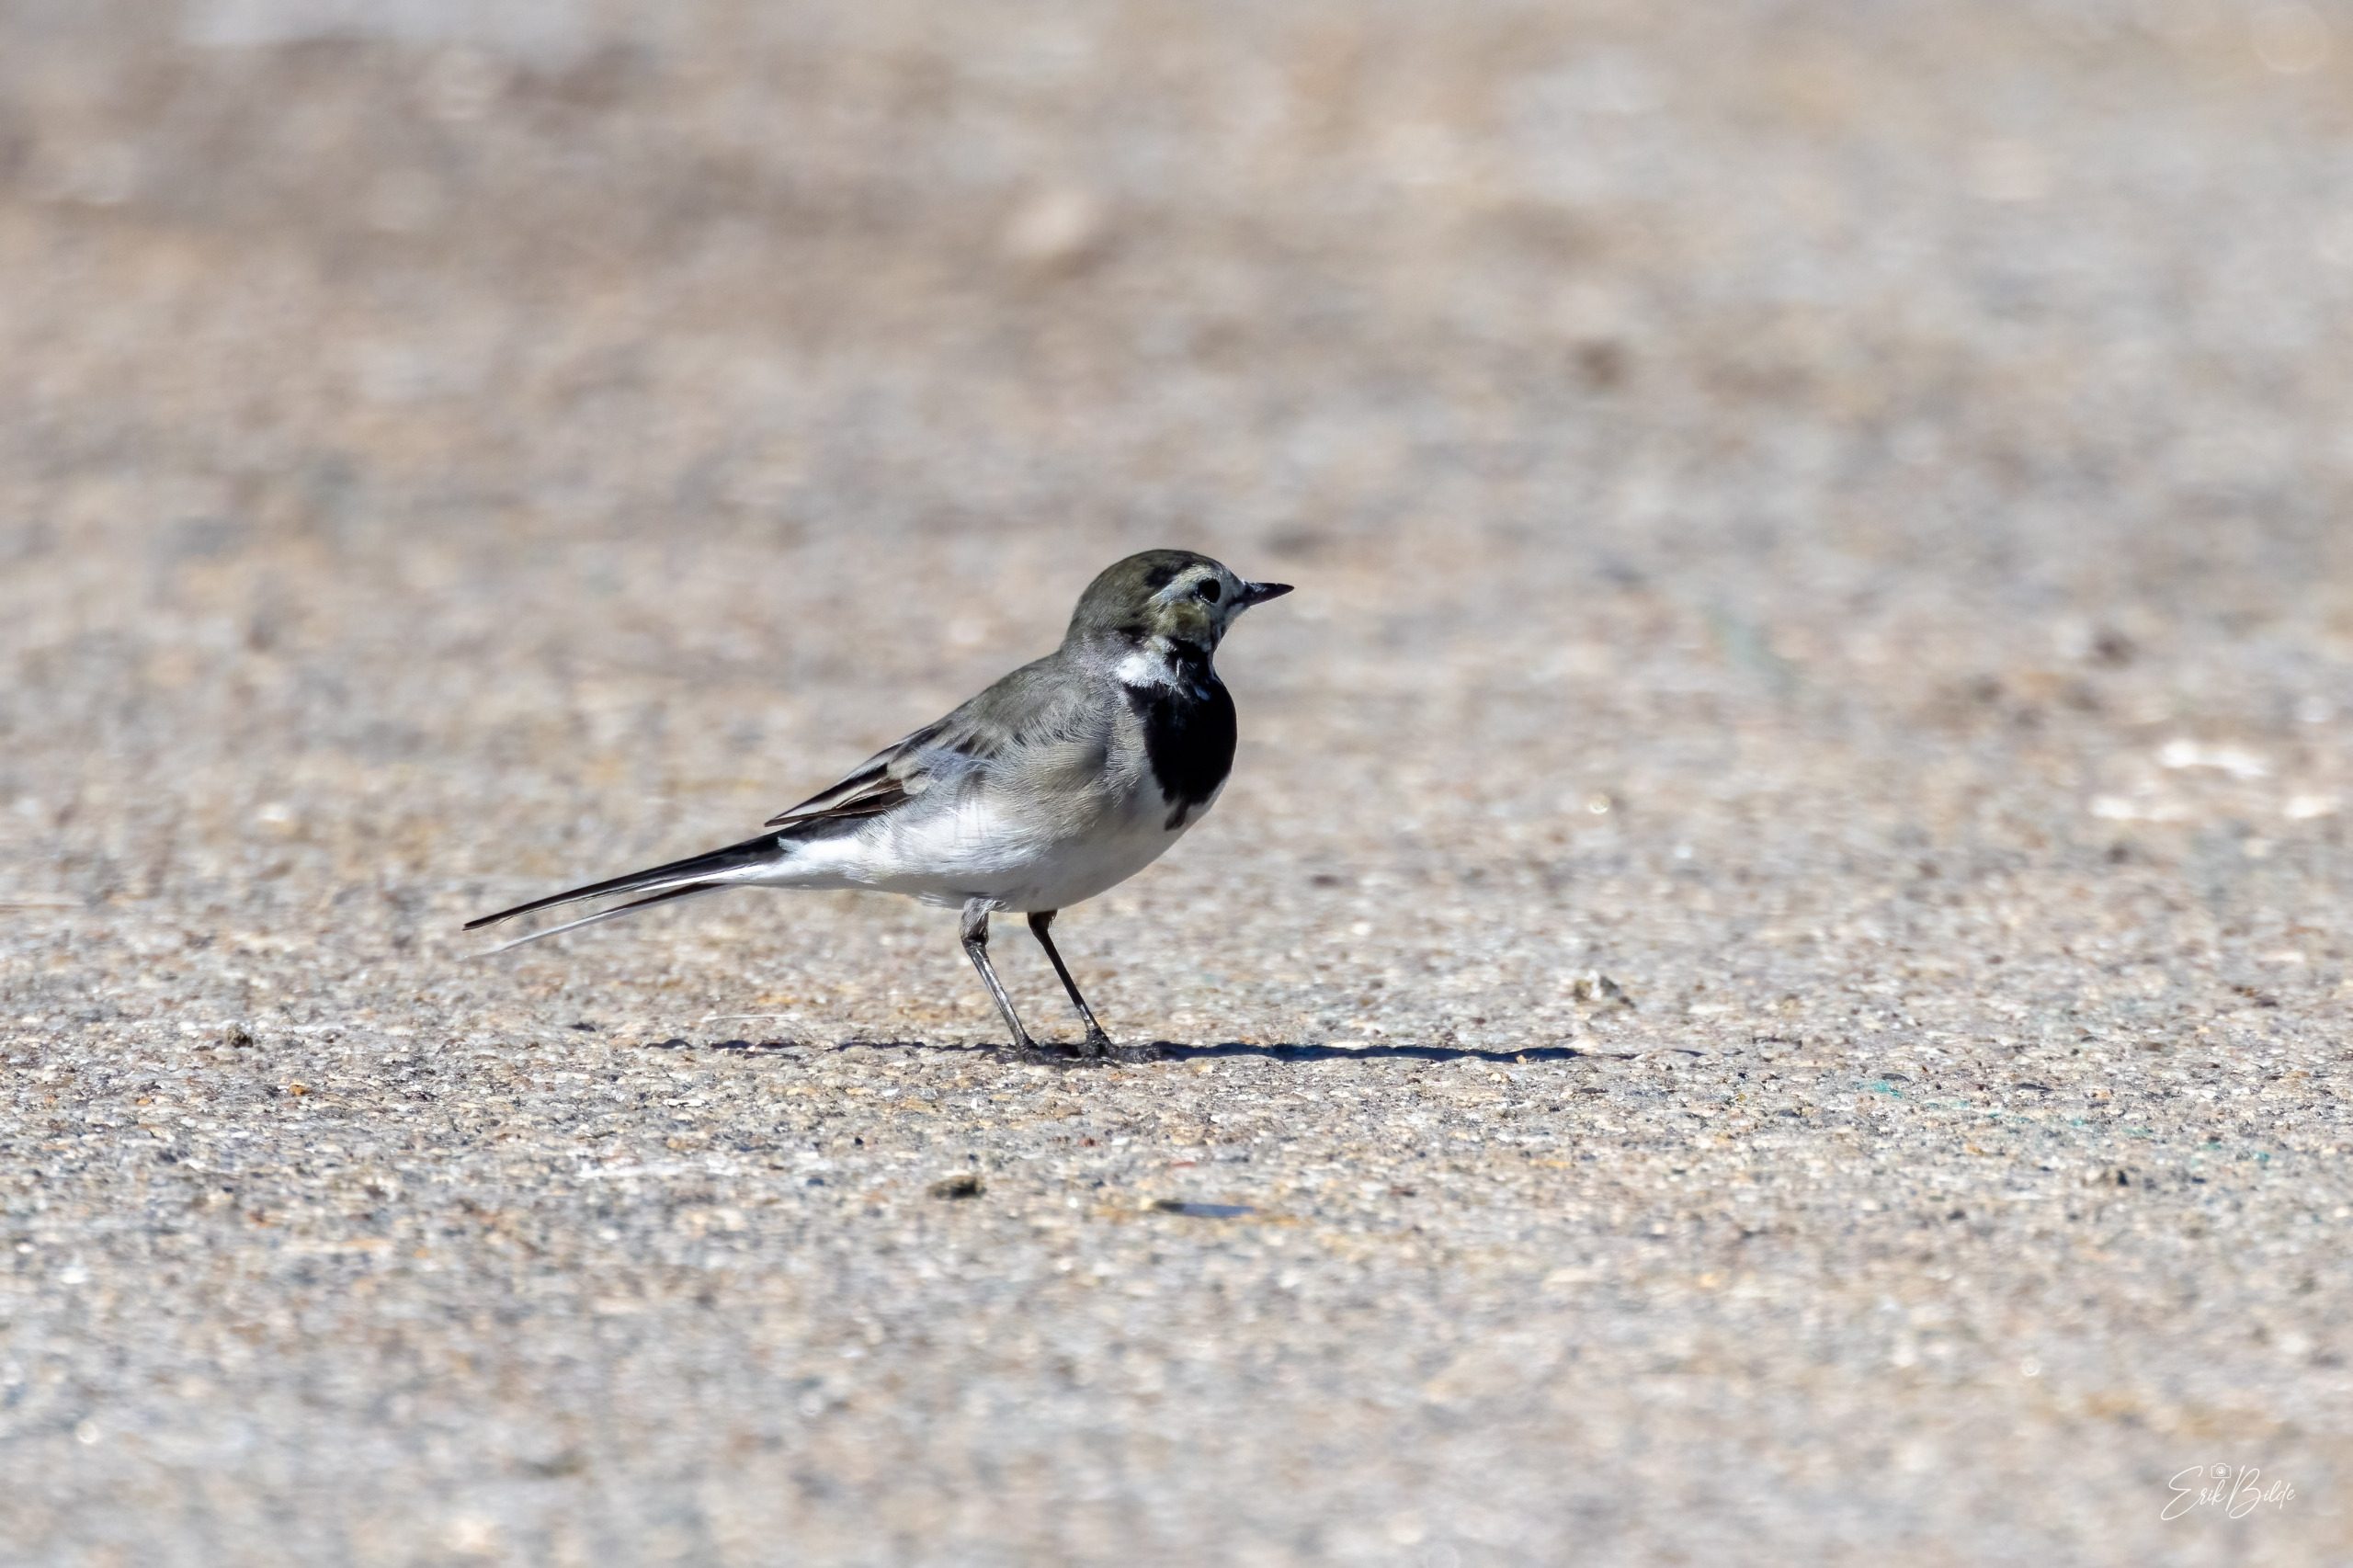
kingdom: Animalia
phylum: Chordata
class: Aves
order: Passeriformes
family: Motacillidae
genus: Motacilla
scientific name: Motacilla alba
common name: Hvid vipstjert
